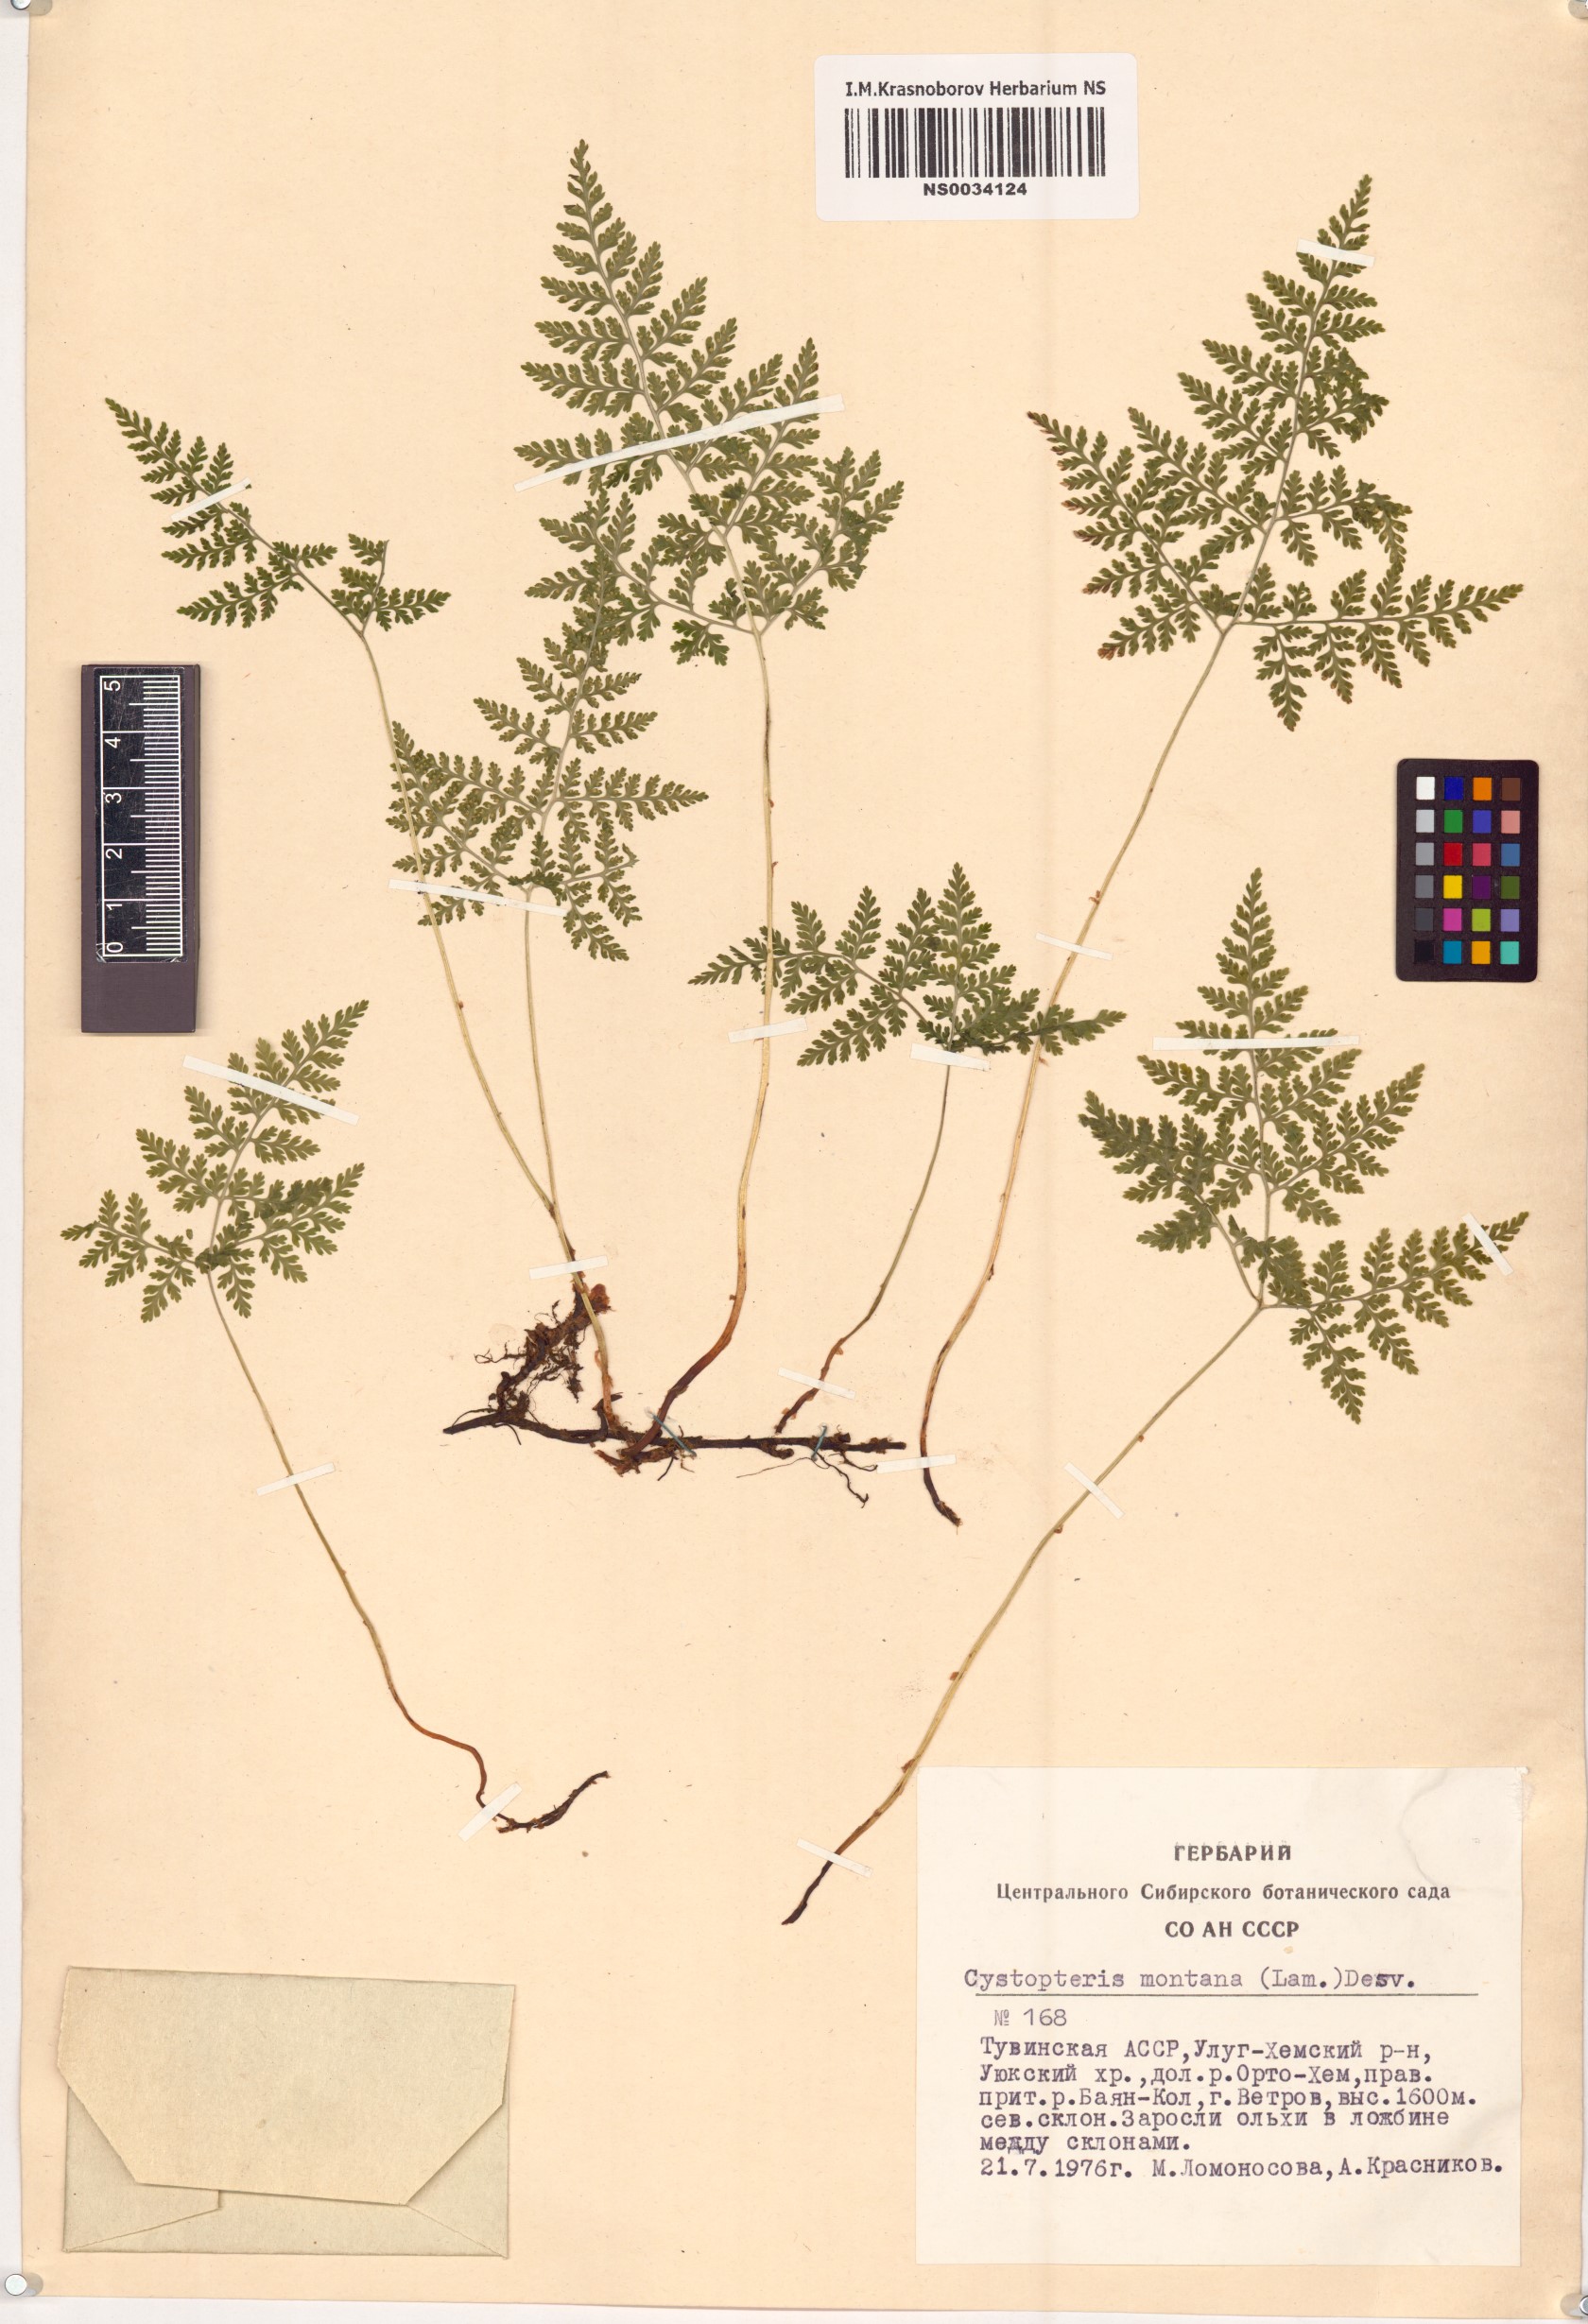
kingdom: Plantae
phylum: Tracheophyta
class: Polypodiopsida
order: Polypodiales
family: Cystopteridaceae
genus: Cystopteris
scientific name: Cystopteris montana
